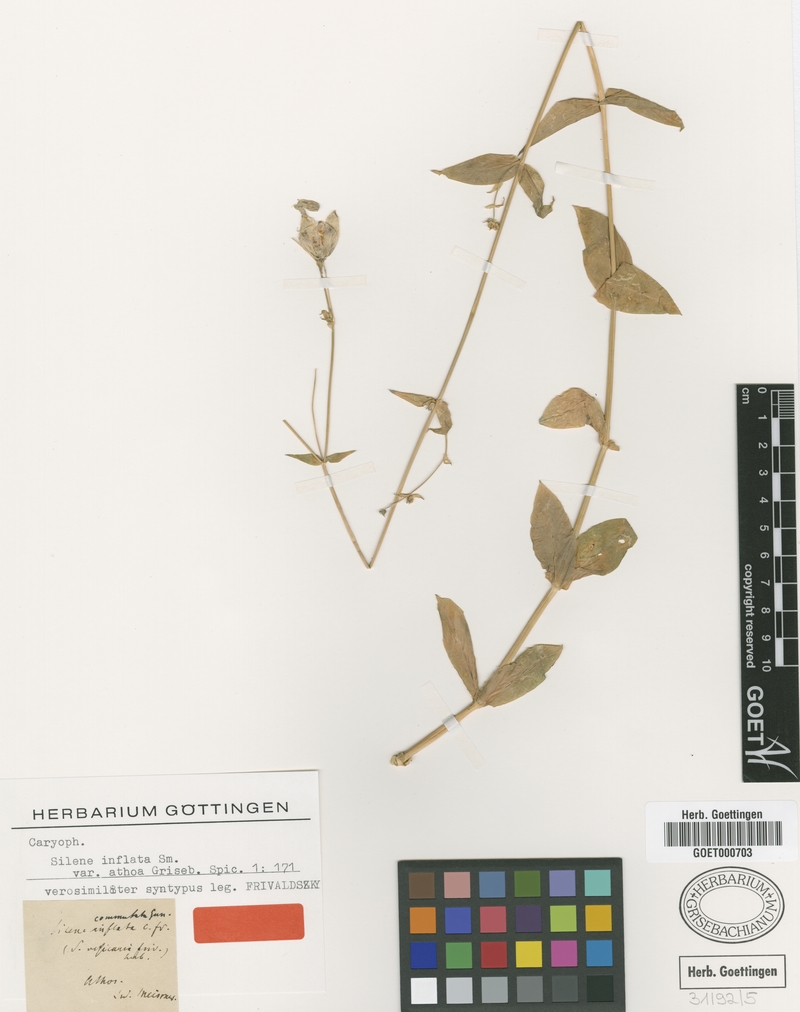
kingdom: Plantae
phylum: Tracheophyta
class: Magnoliopsida
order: Caryophyllales
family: Caryophyllaceae
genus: Silene
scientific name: Silene commutata
